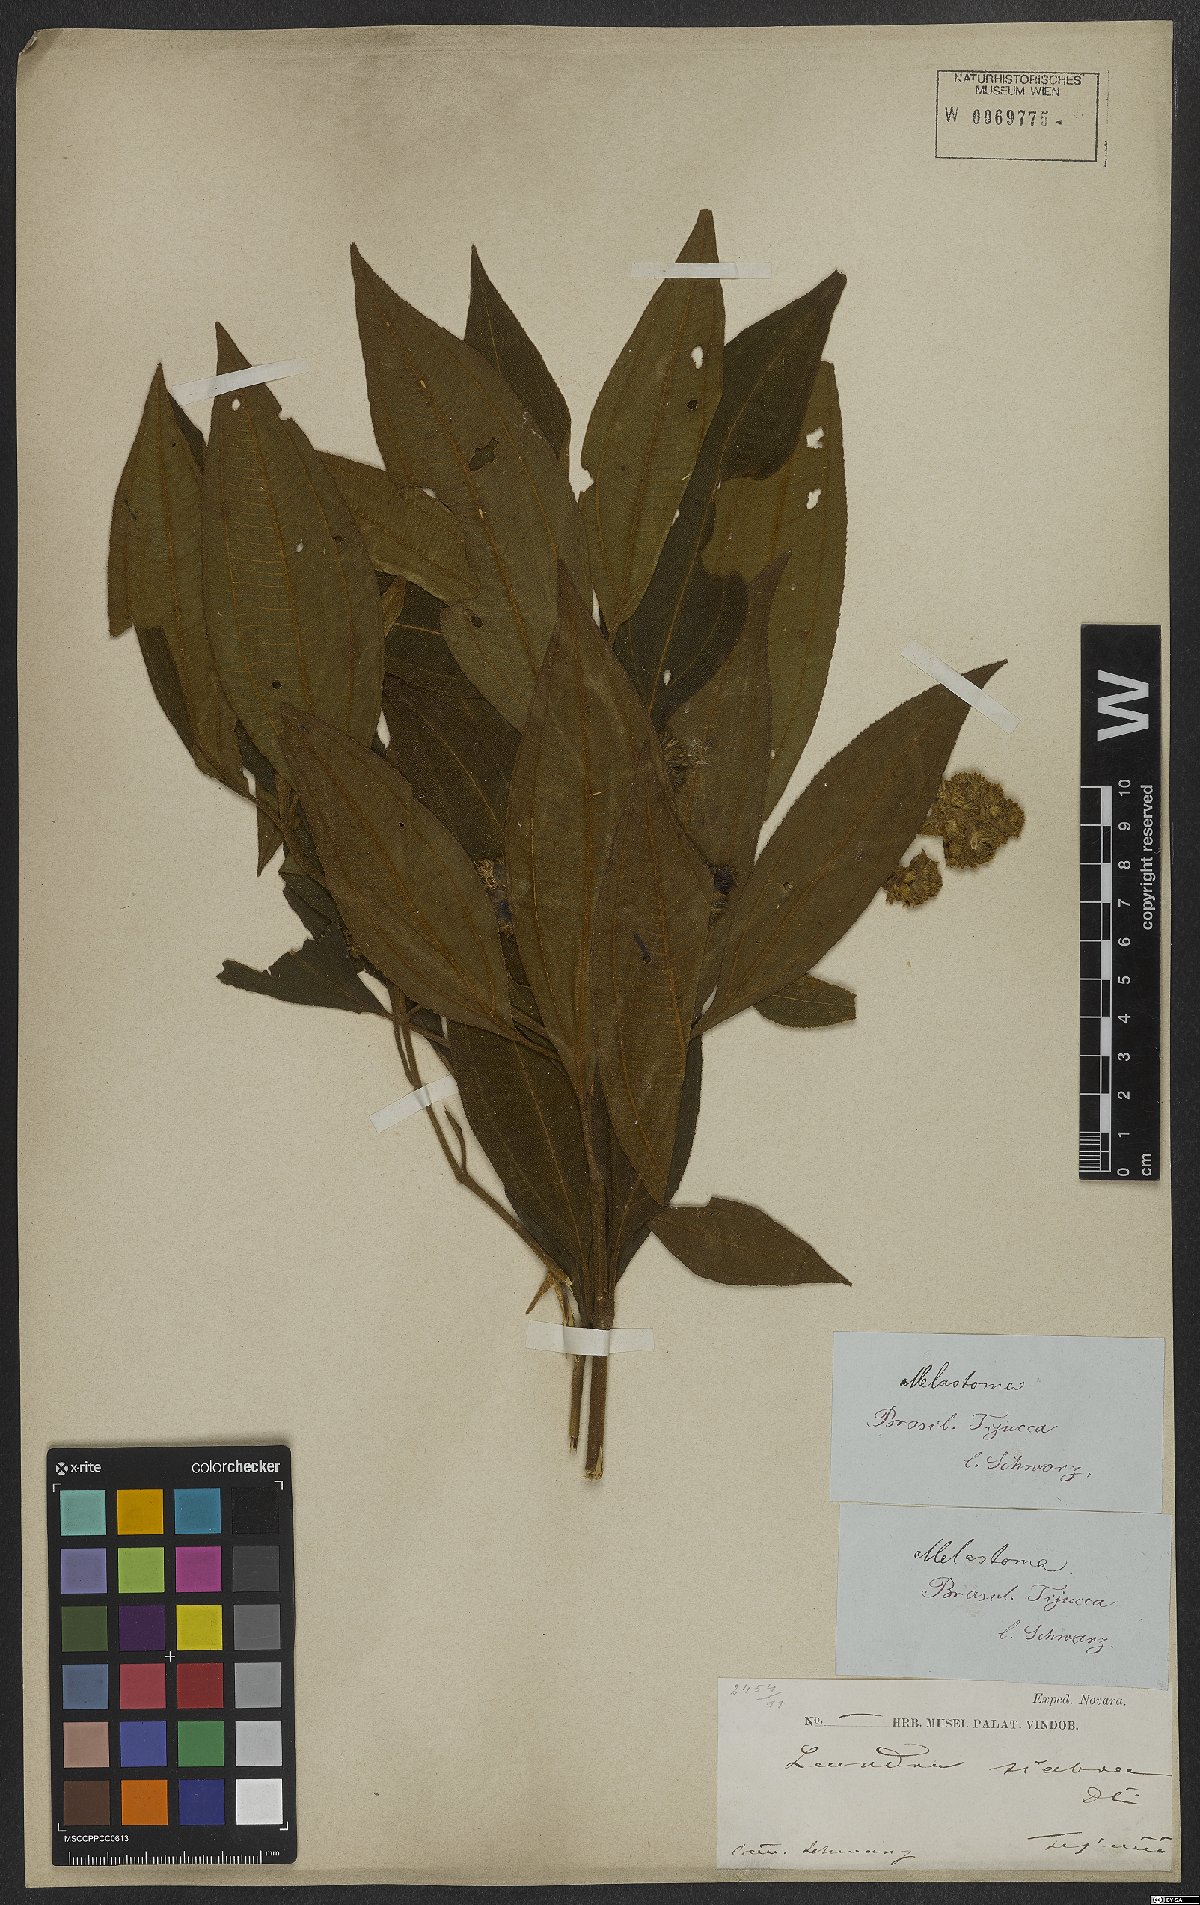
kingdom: Plantae
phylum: Tracheophyta
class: Magnoliopsida
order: Myrtales
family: Melastomataceae
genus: Miconia
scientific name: Miconia melastomoides
